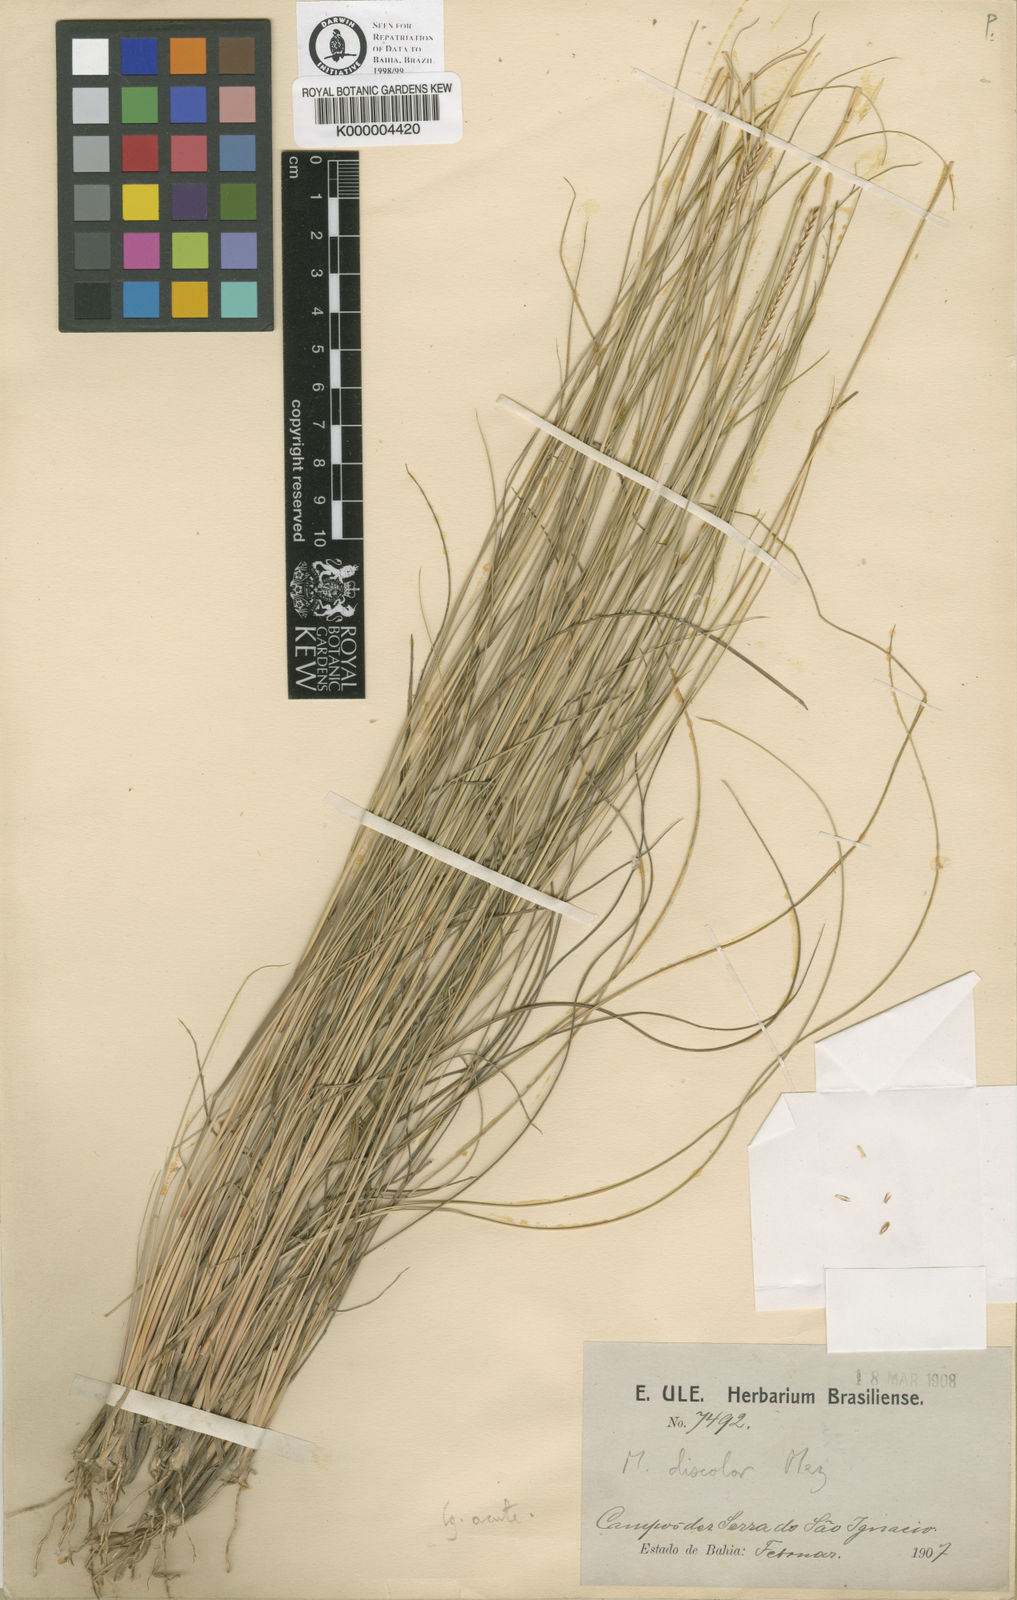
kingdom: Plantae
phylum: Tracheophyta
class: Liliopsida
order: Poales
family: Poaceae
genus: Mesosetum
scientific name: Mesosetum rottboellioides
